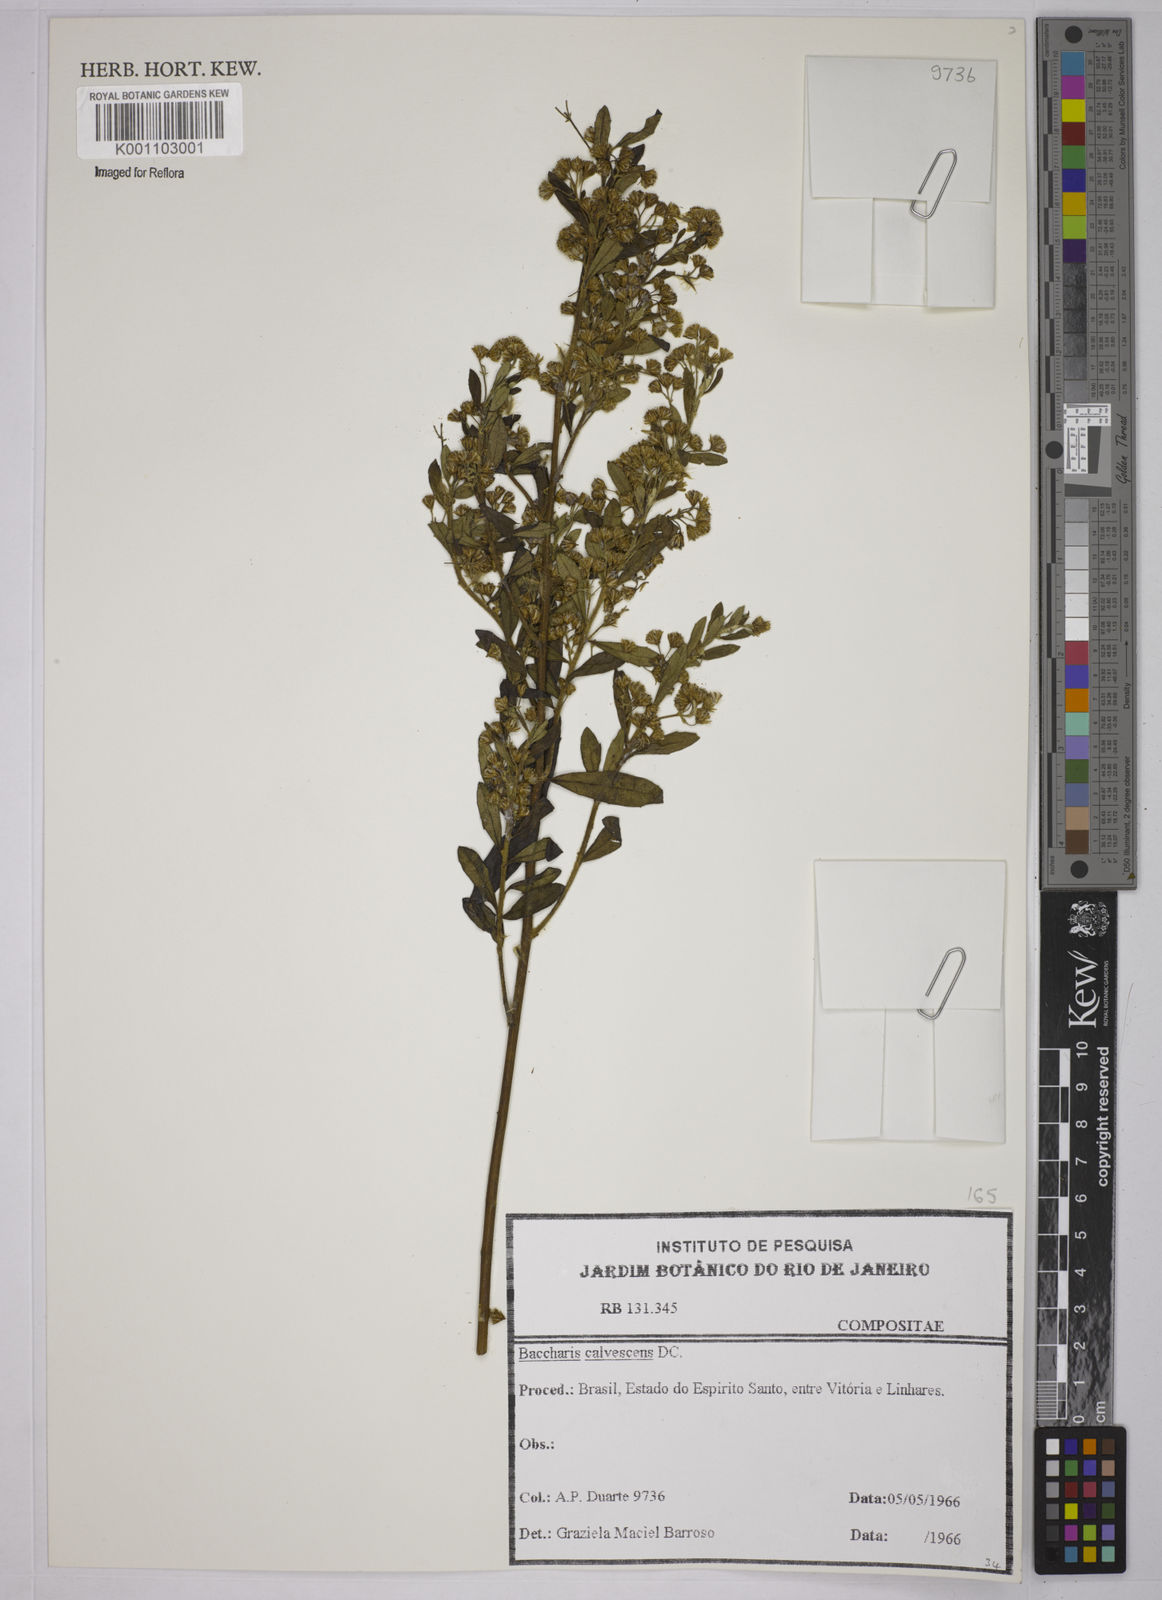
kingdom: Plantae
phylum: Tracheophyta
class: Magnoliopsida
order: Asterales
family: Asteraceae
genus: Baccharis
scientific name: Baccharis calvescens
